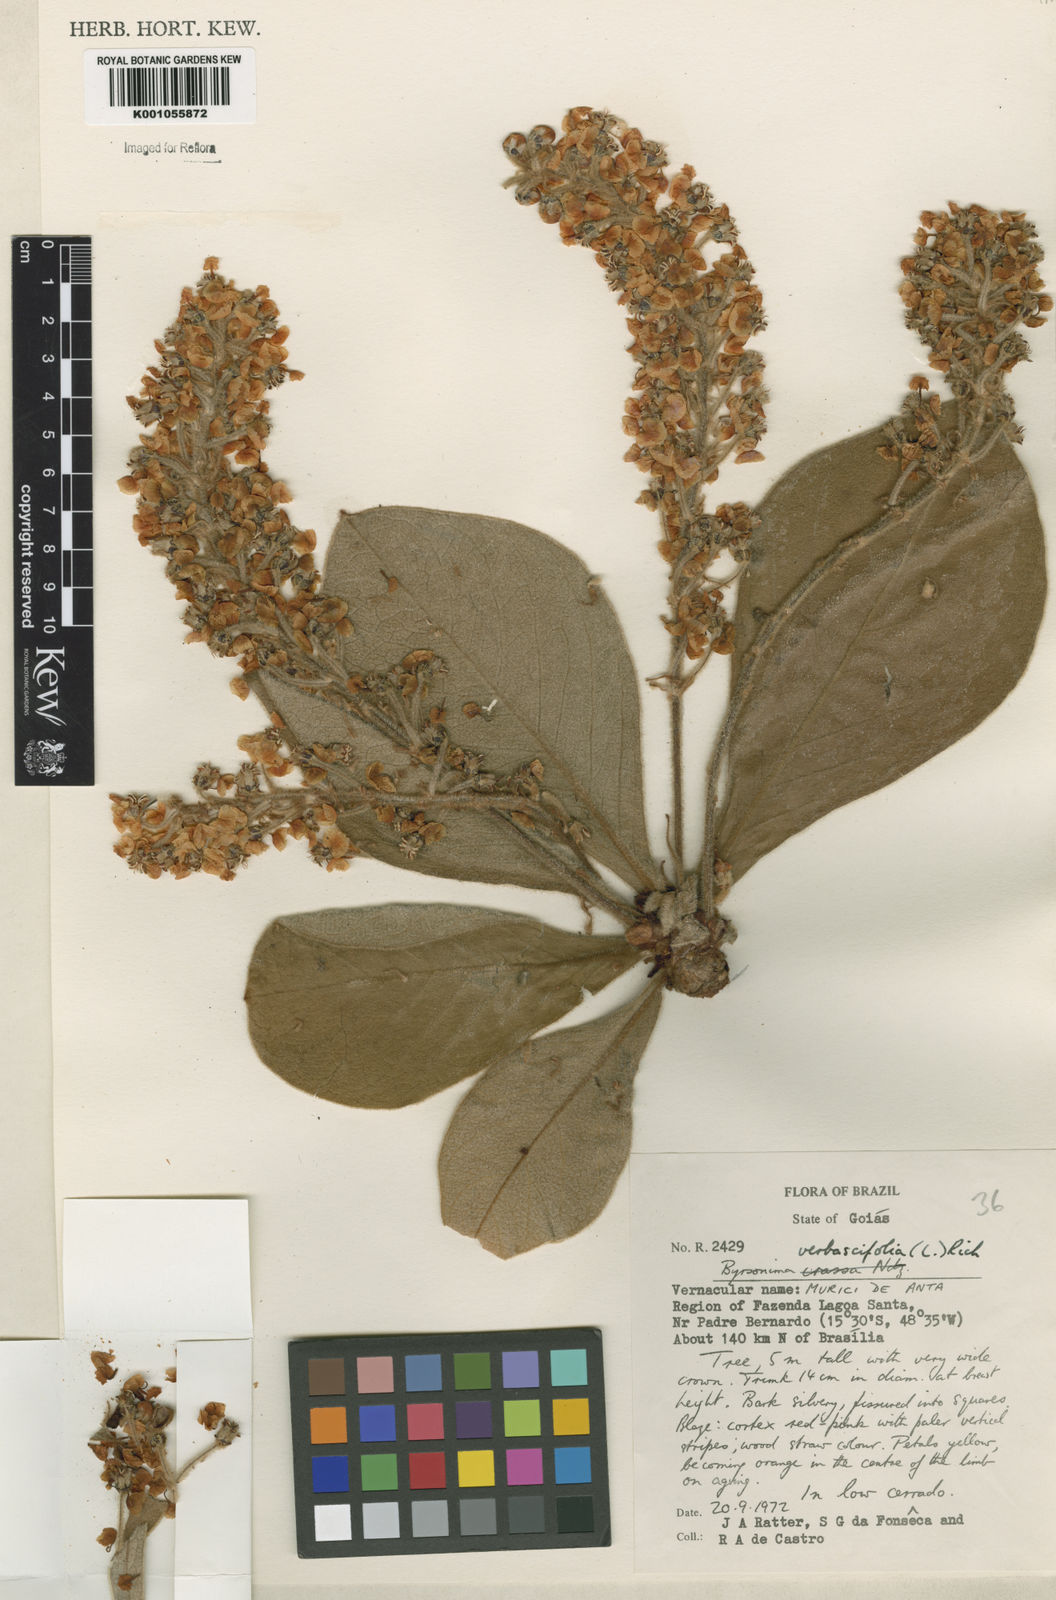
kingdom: Plantae
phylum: Tracheophyta
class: Magnoliopsida
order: Malpighiales
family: Malpighiaceae
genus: Byrsonima
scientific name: Byrsonima verbascifolia
